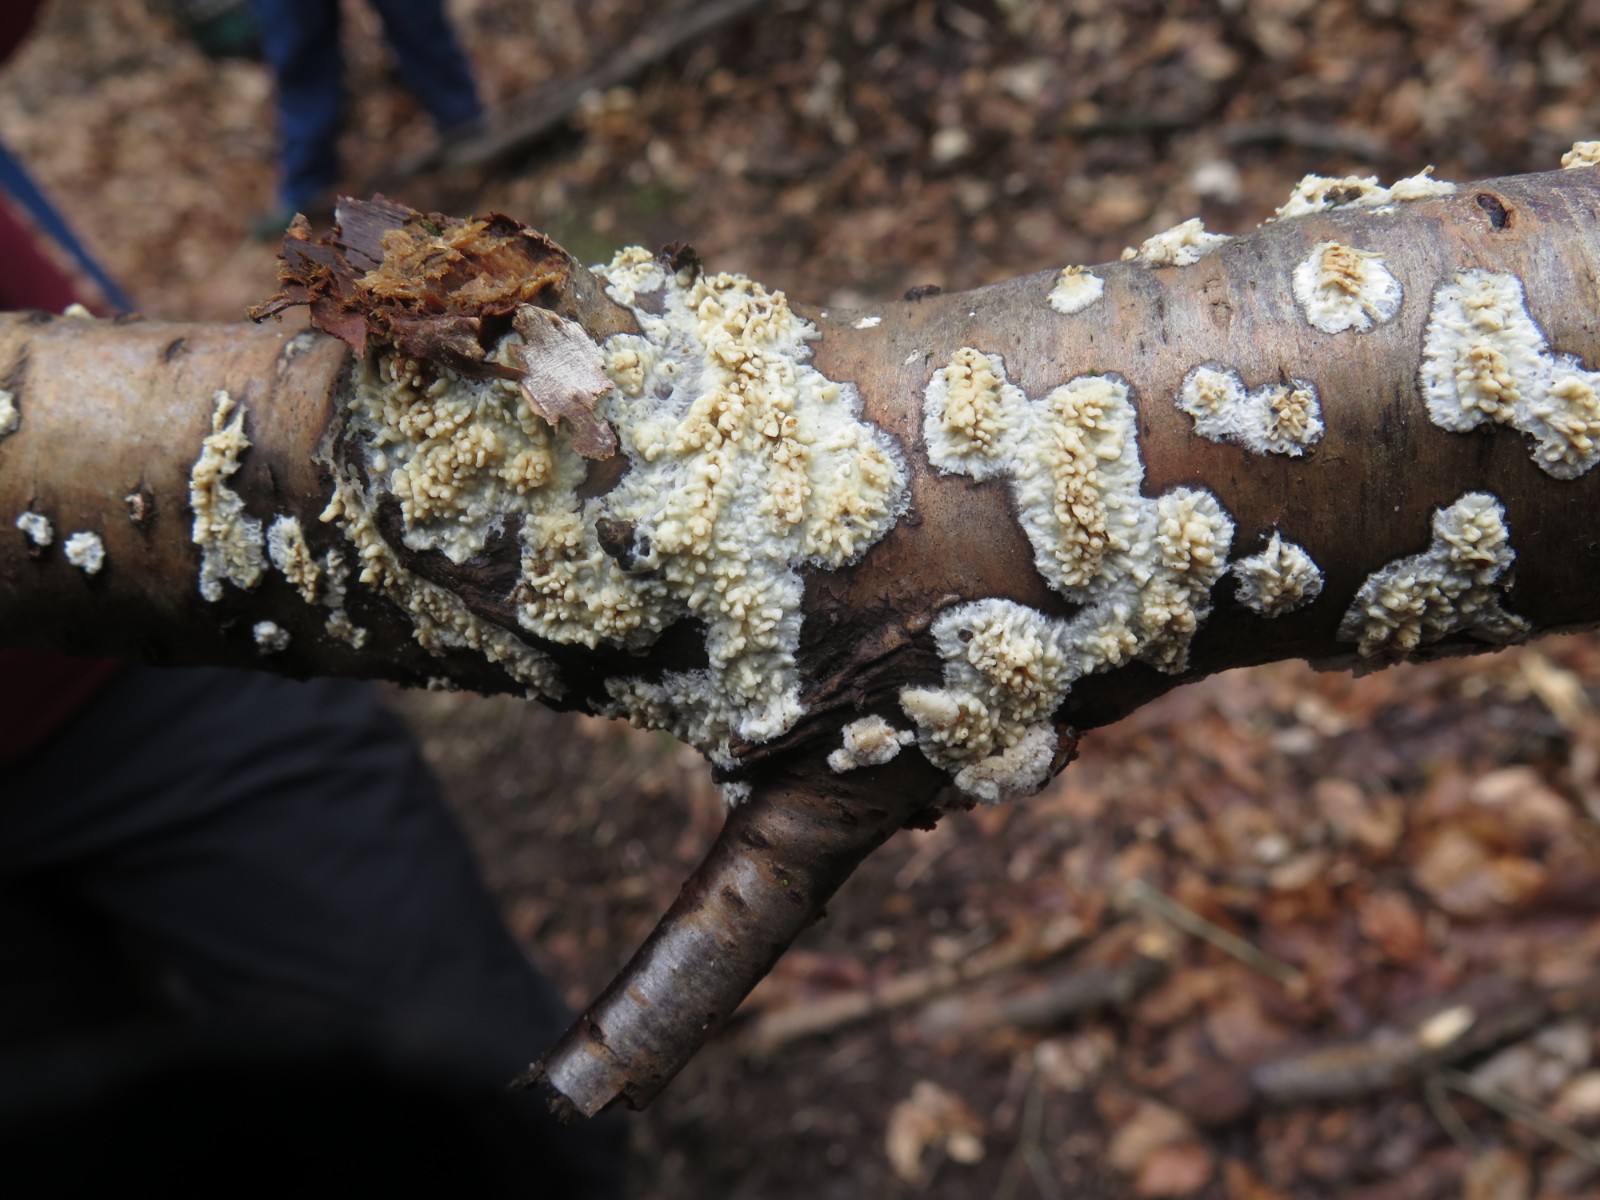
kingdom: Fungi
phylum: Basidiomycota
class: Agaricomycetes
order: Hymenochaetales
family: Schizoporaceae
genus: Xylodon
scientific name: Xylodon radula
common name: grovtandet kalkskind
